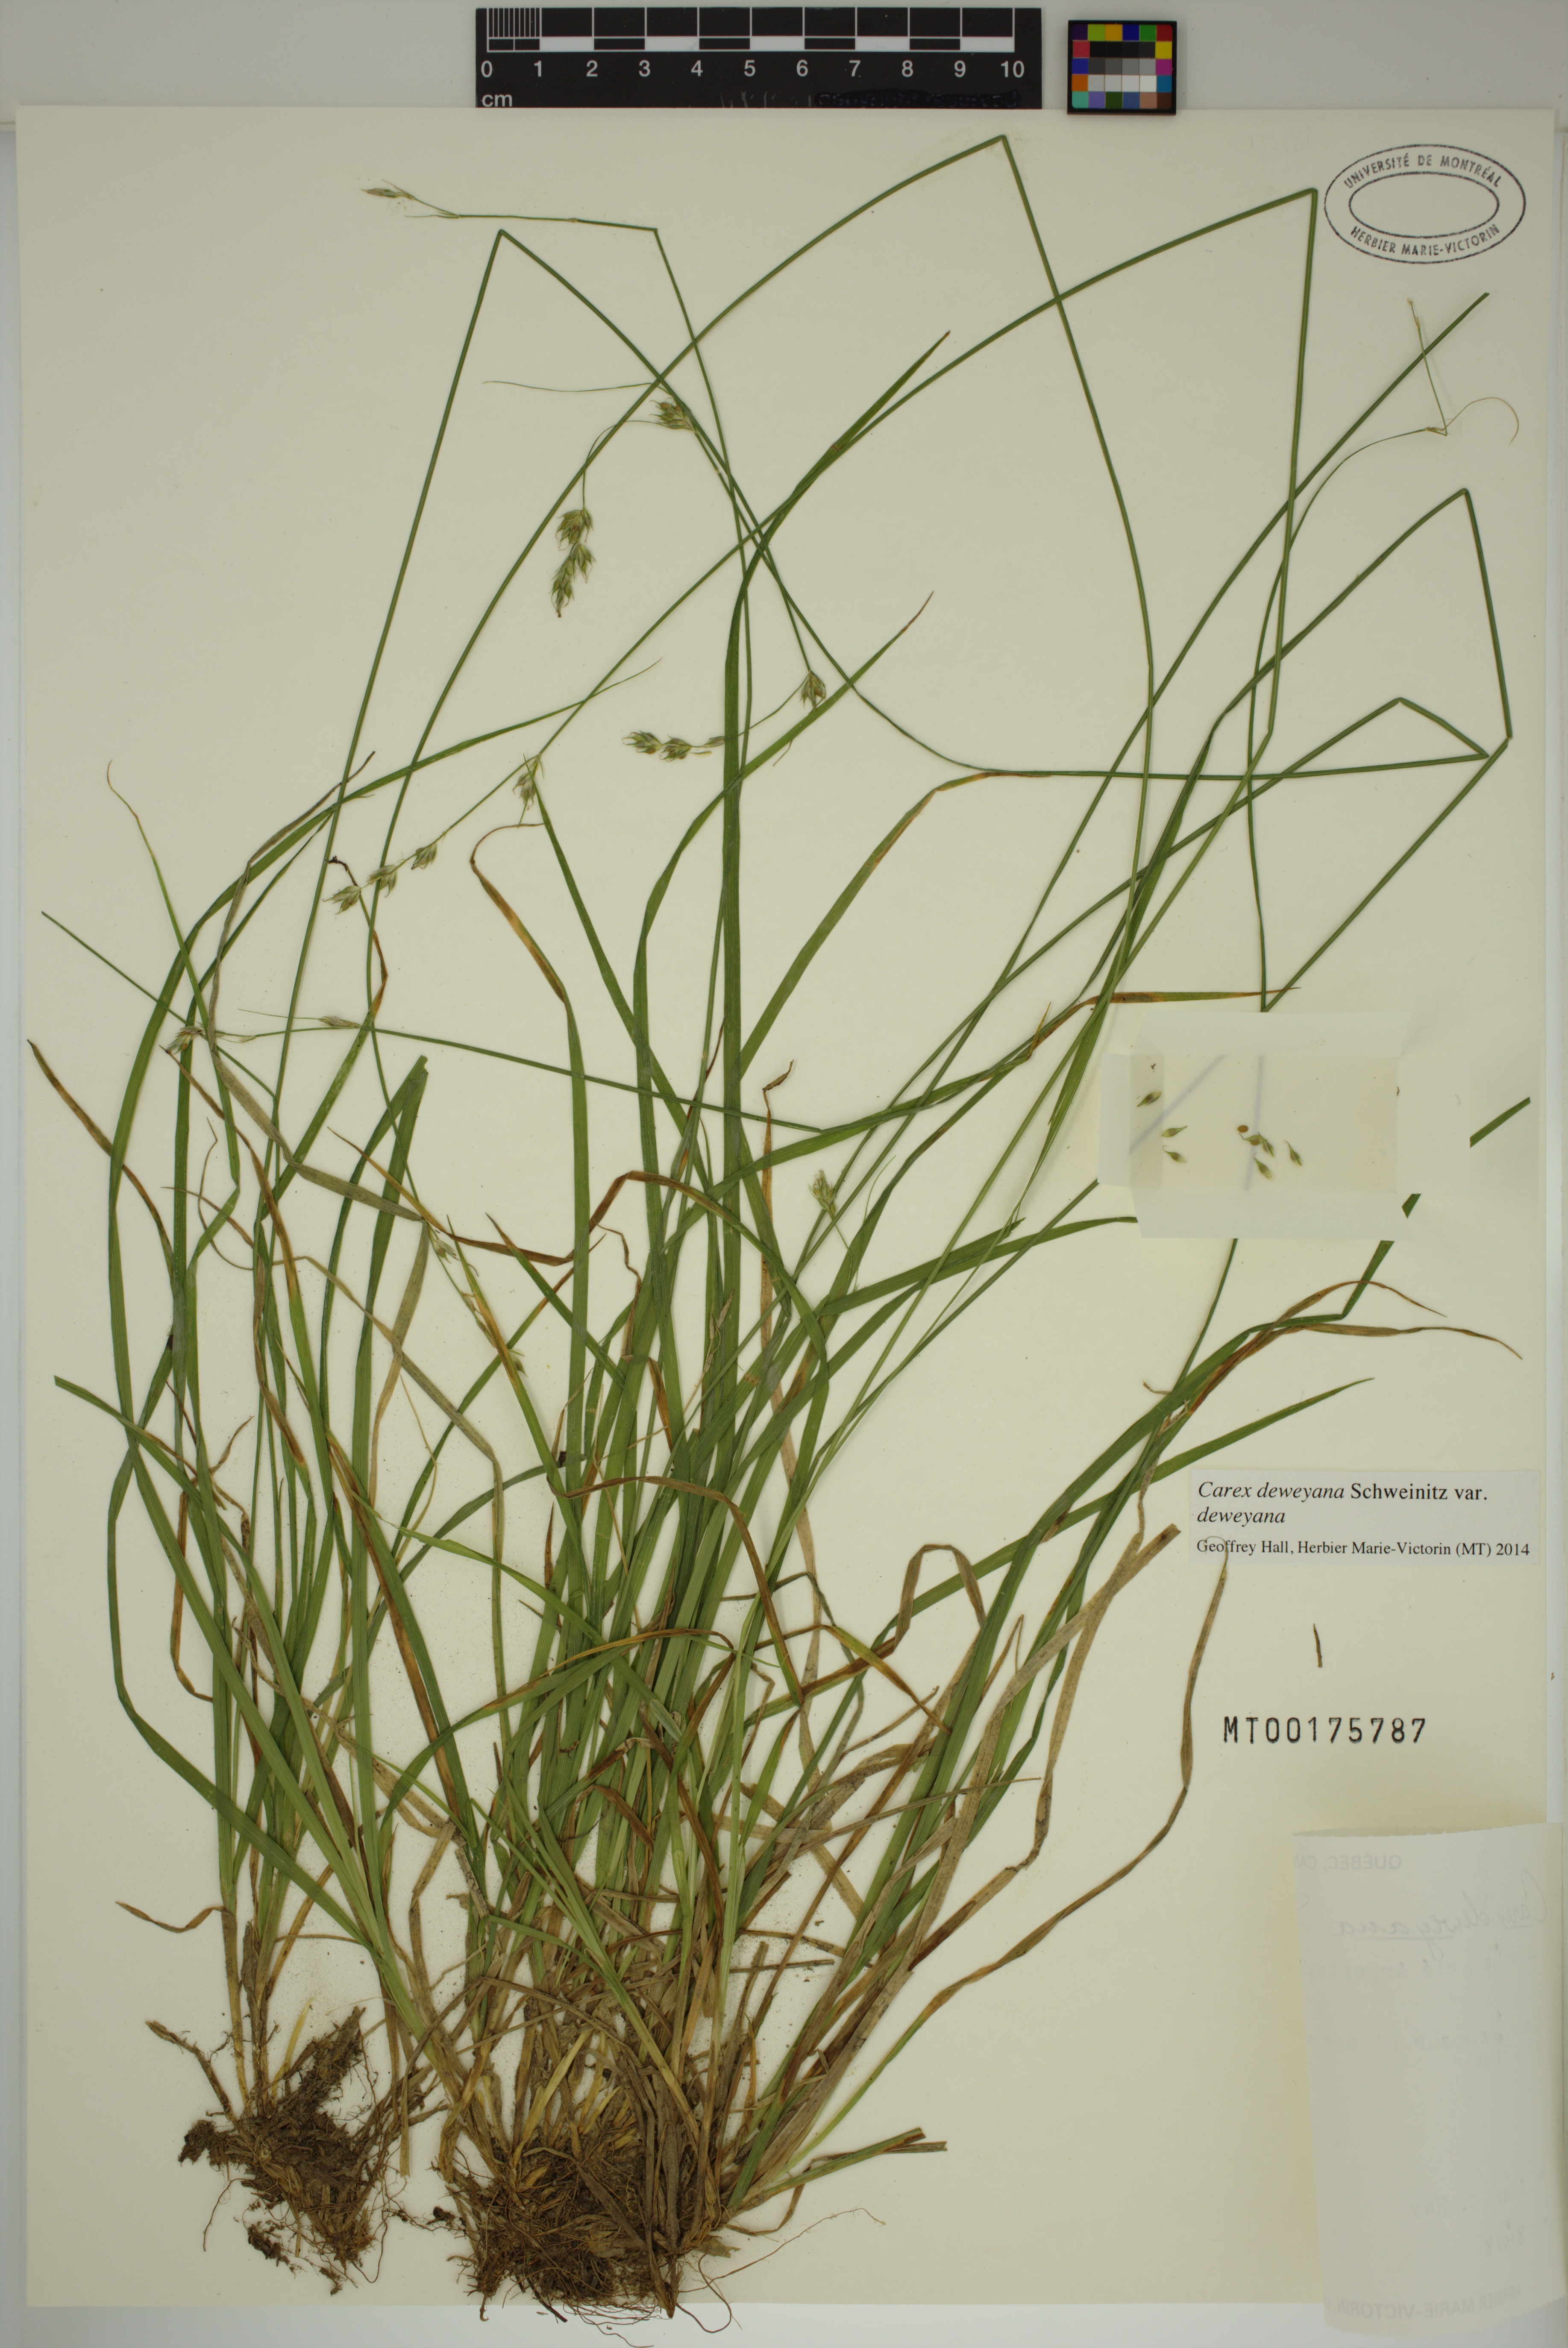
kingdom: Plantae
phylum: Tracheophyta
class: Liliopsida
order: Poales
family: Cyperaceae
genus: Carex
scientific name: Carex deweyana
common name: Dewey's sedge
